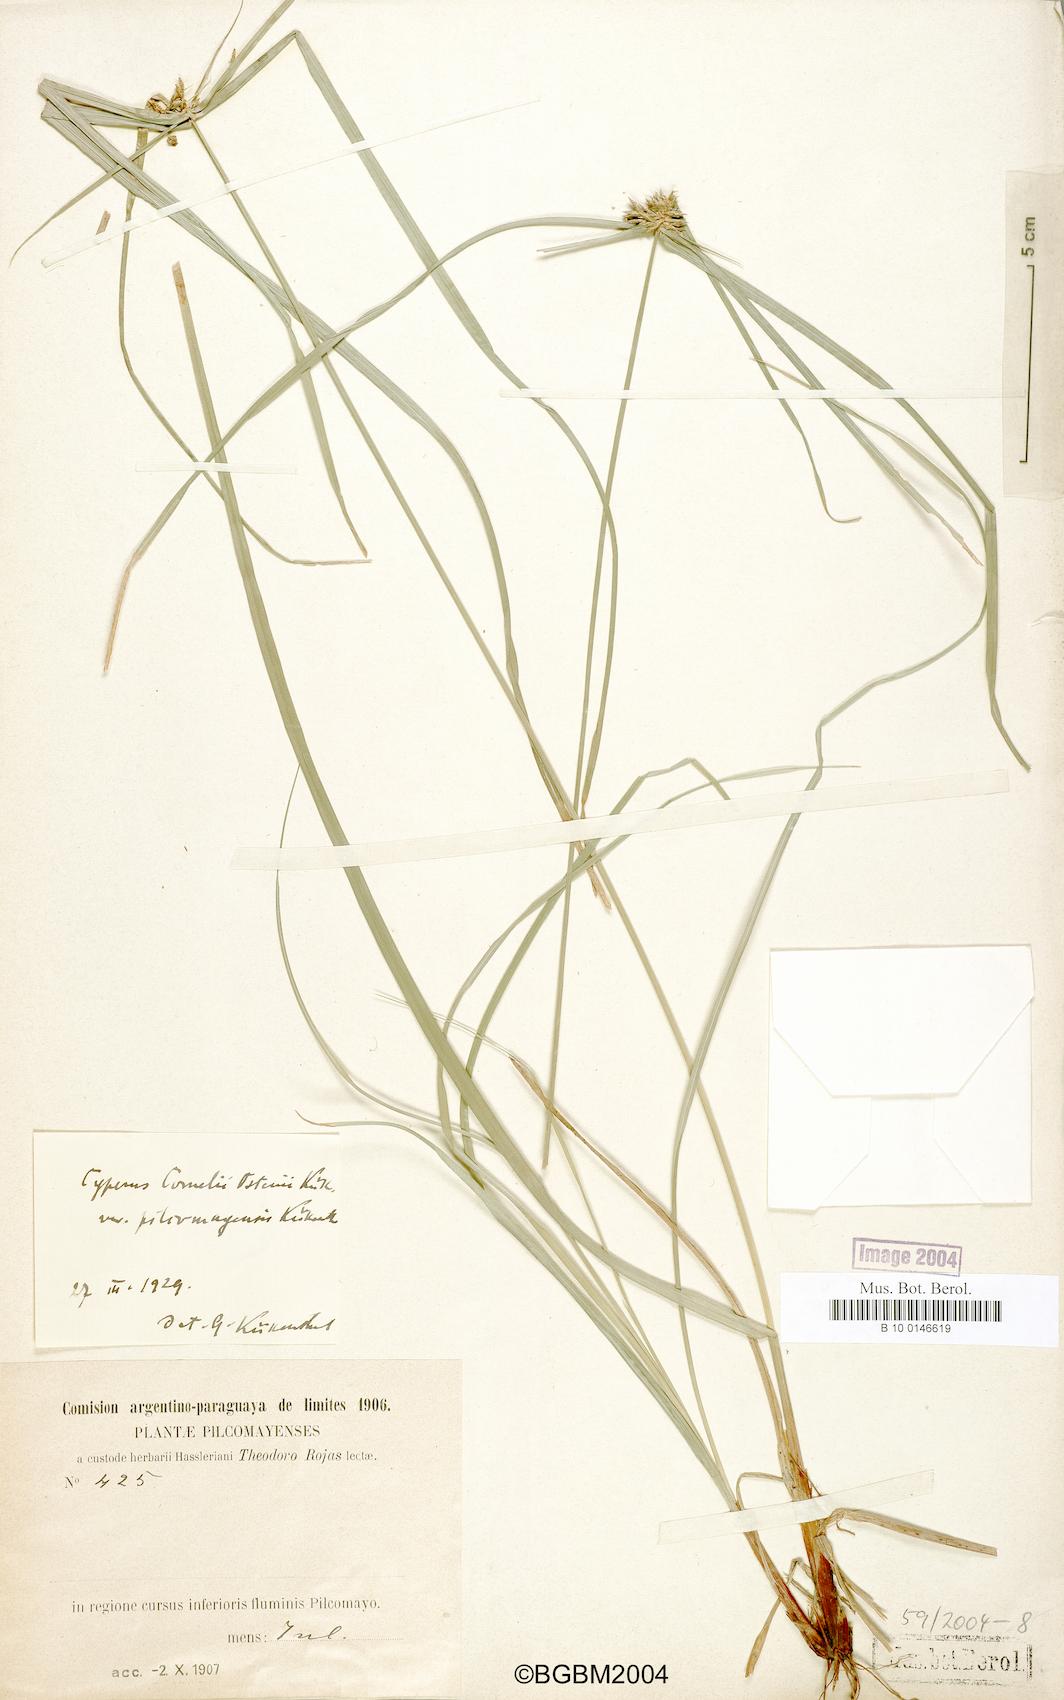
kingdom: Plantae
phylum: Tracheophyta
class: Liliopsida
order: Poales
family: Cyperaceae
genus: Cyperus
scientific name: Cyperus cornelii-ostenii
